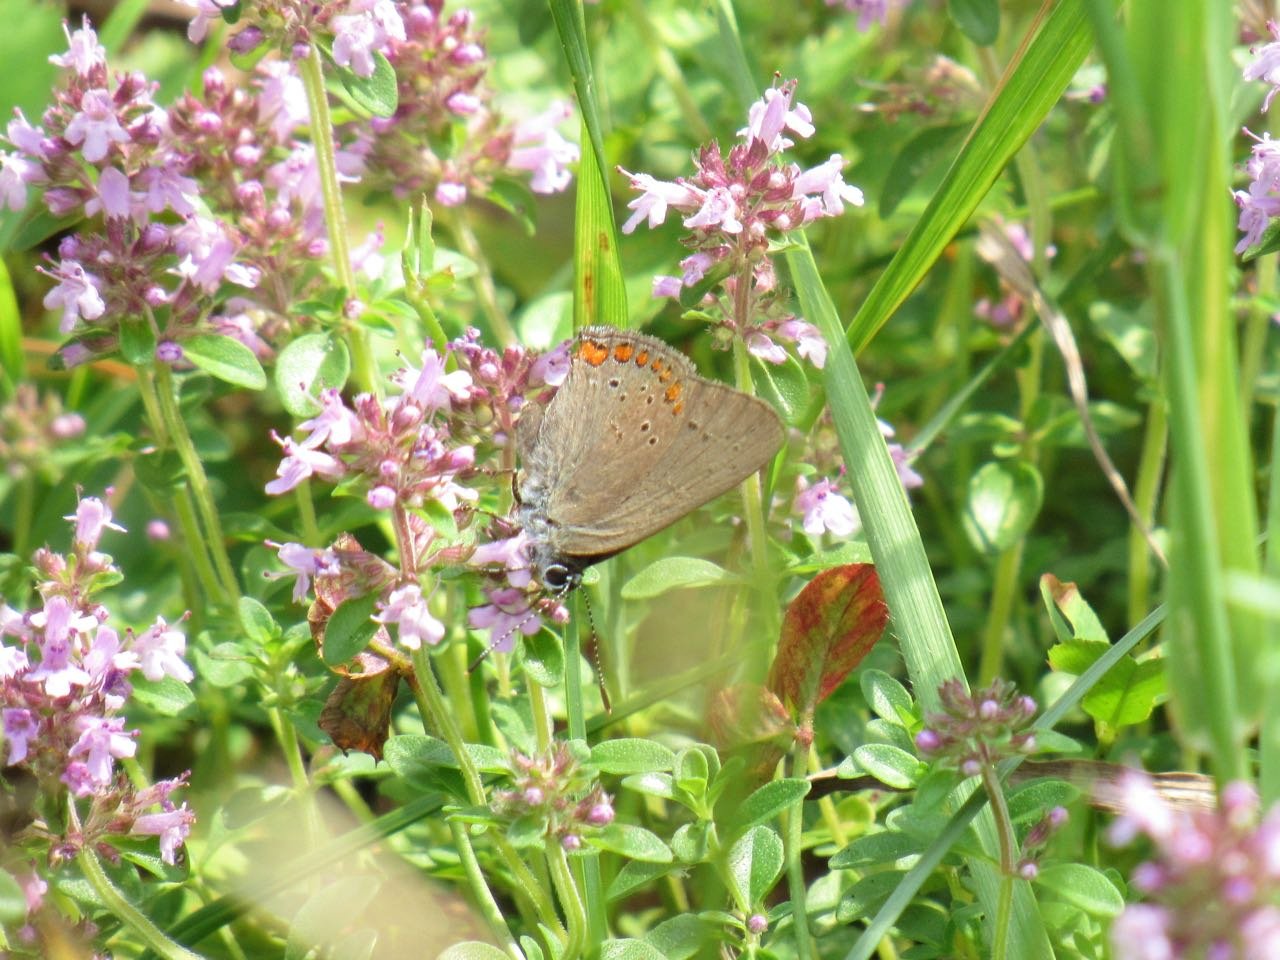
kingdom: Animalia
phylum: Arthropoda
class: Insecta
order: Lepidoptera
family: Lycaenidae
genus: Harkenclenus
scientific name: Harkenclenus titus
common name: Coral Hairstreak
